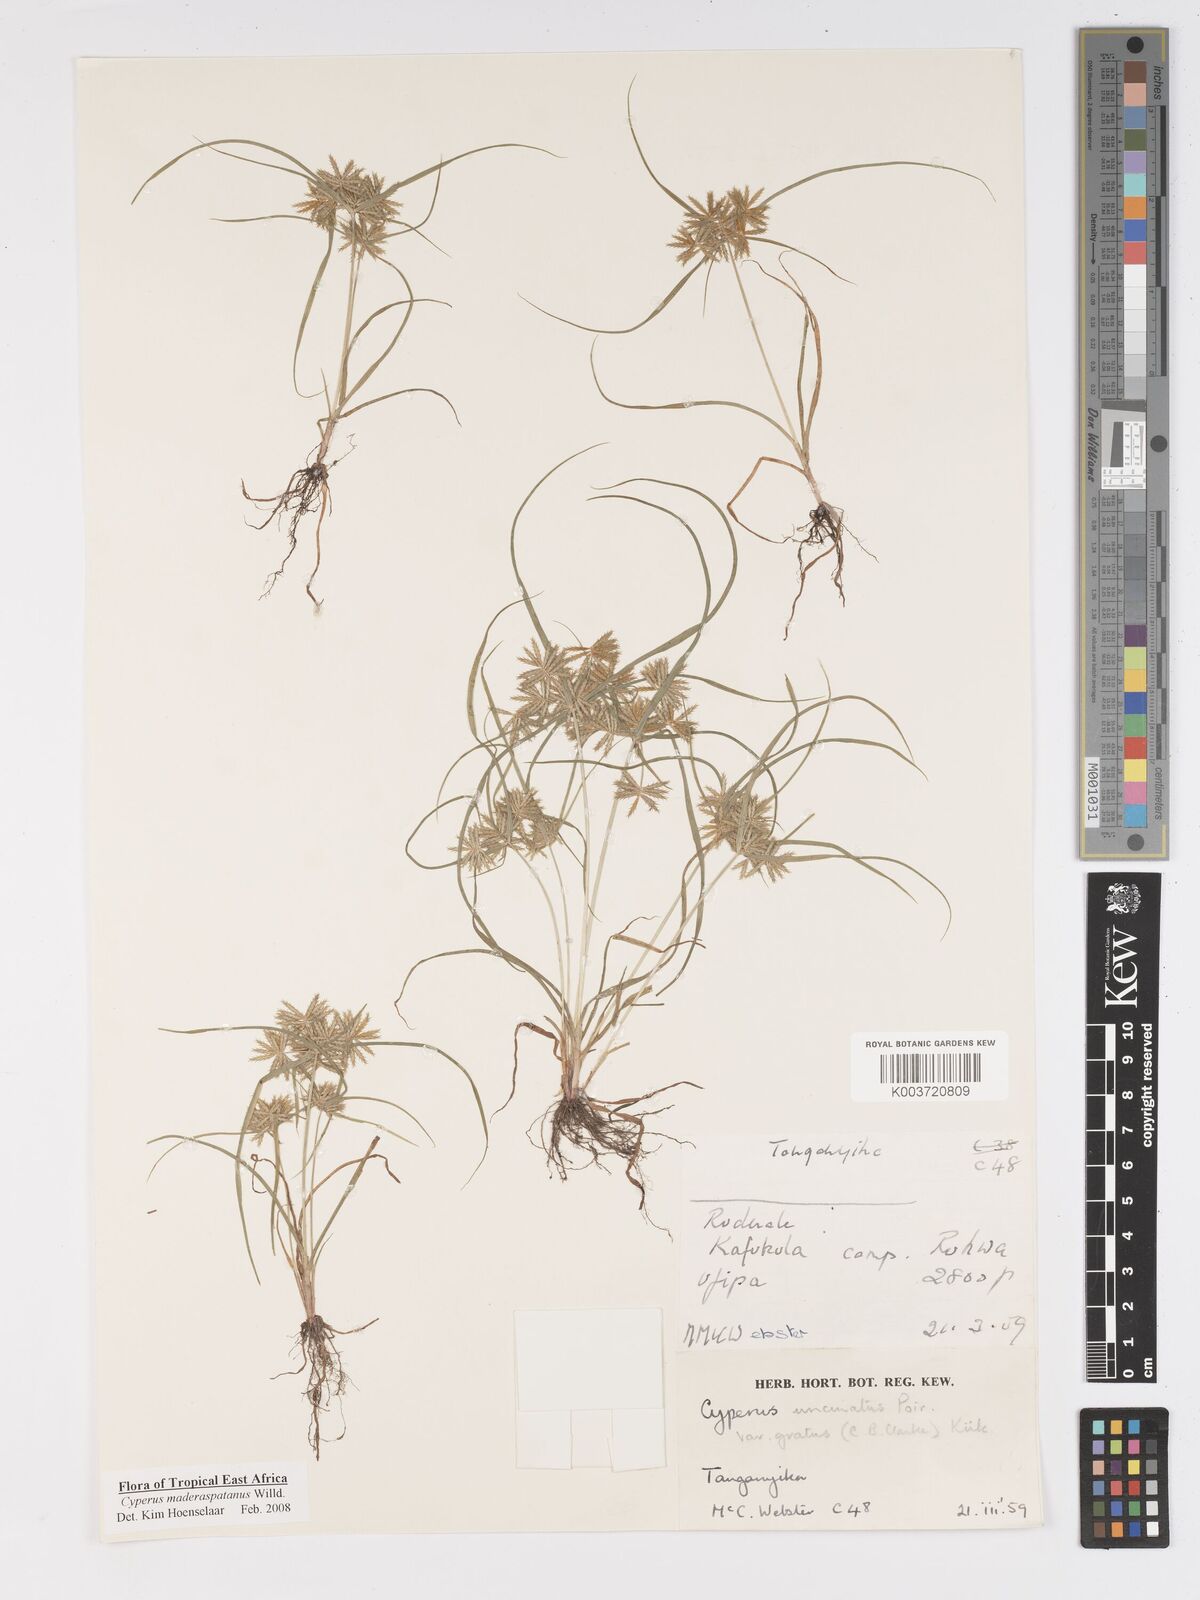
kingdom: Plantae
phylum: Tracheophyta
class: Liliopsida
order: Poales
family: Cyperaceae
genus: Cyperus
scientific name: Cyperus maderaspatanus
